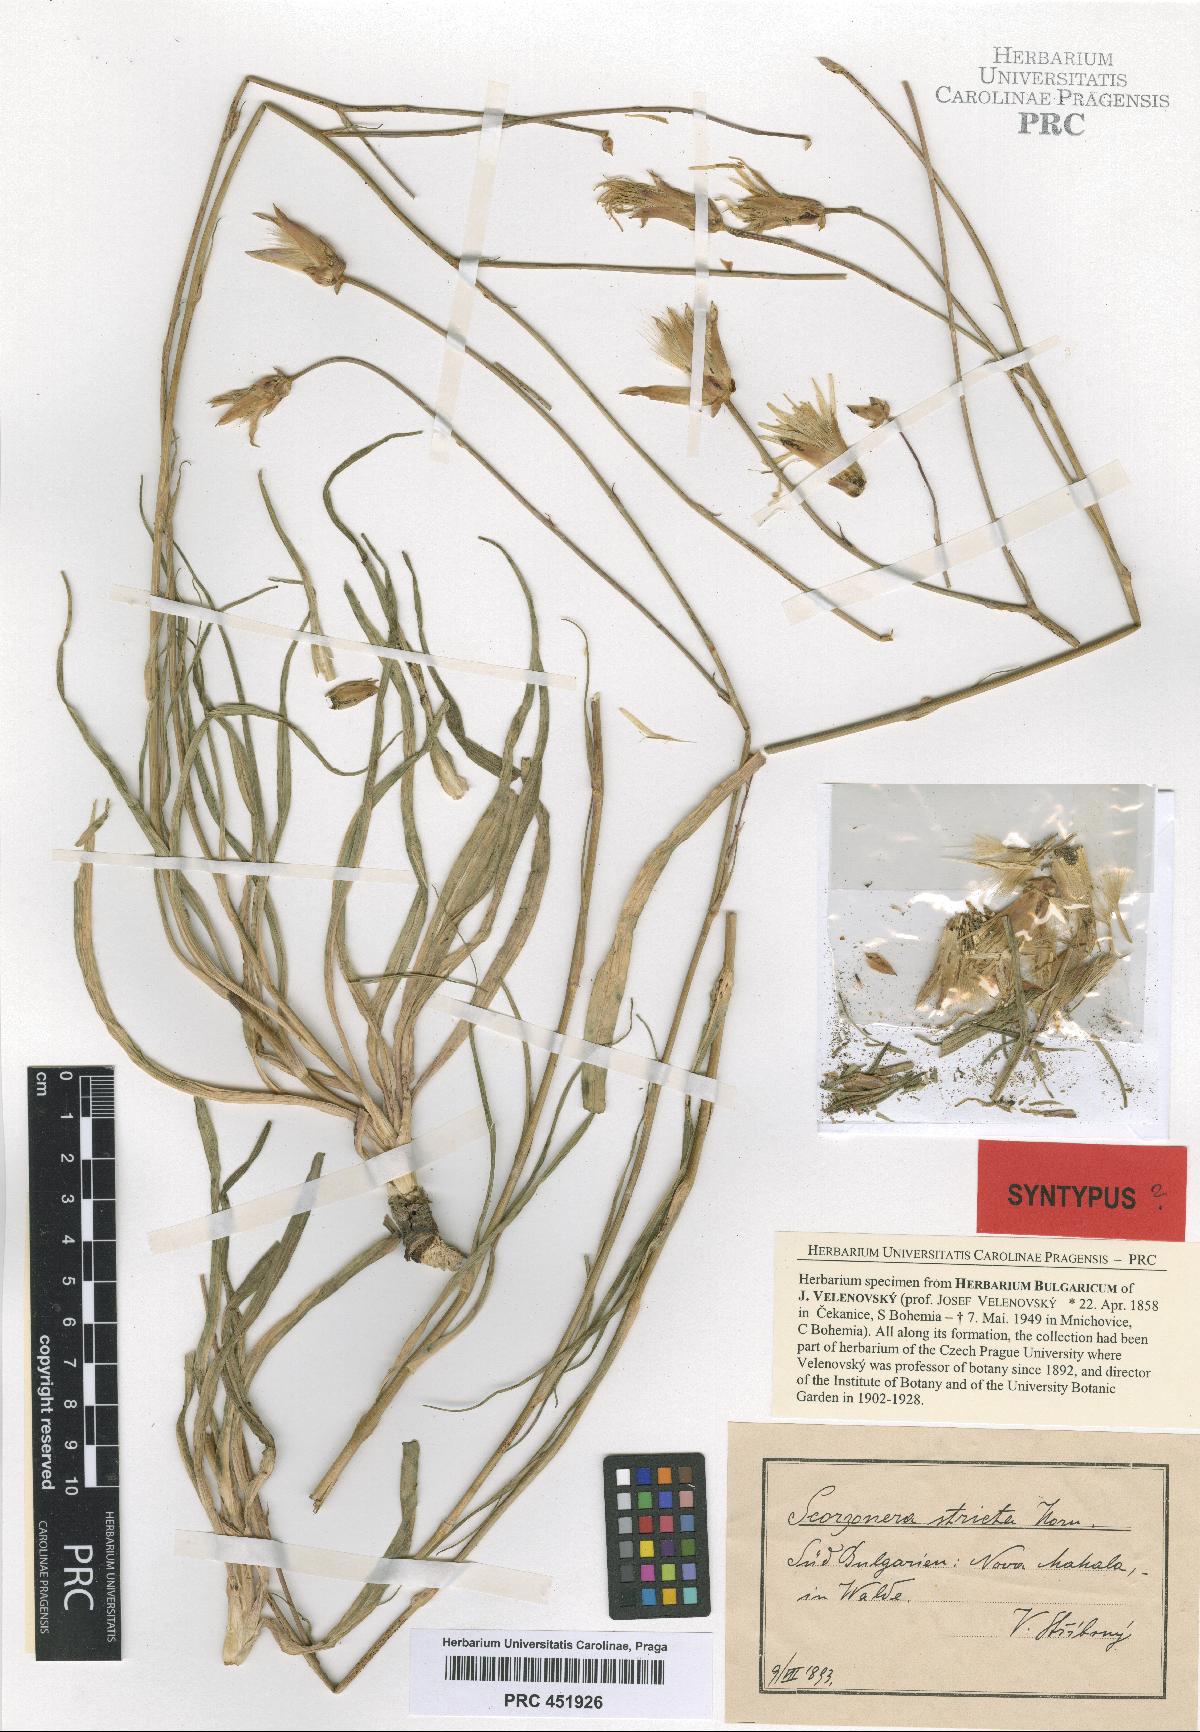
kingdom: Plantae
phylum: Tracheophyta
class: Magnoliopsida
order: Asterales
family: Asteraceae
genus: Pseudopodospermum
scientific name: Pseudopodospermum hispanicum
